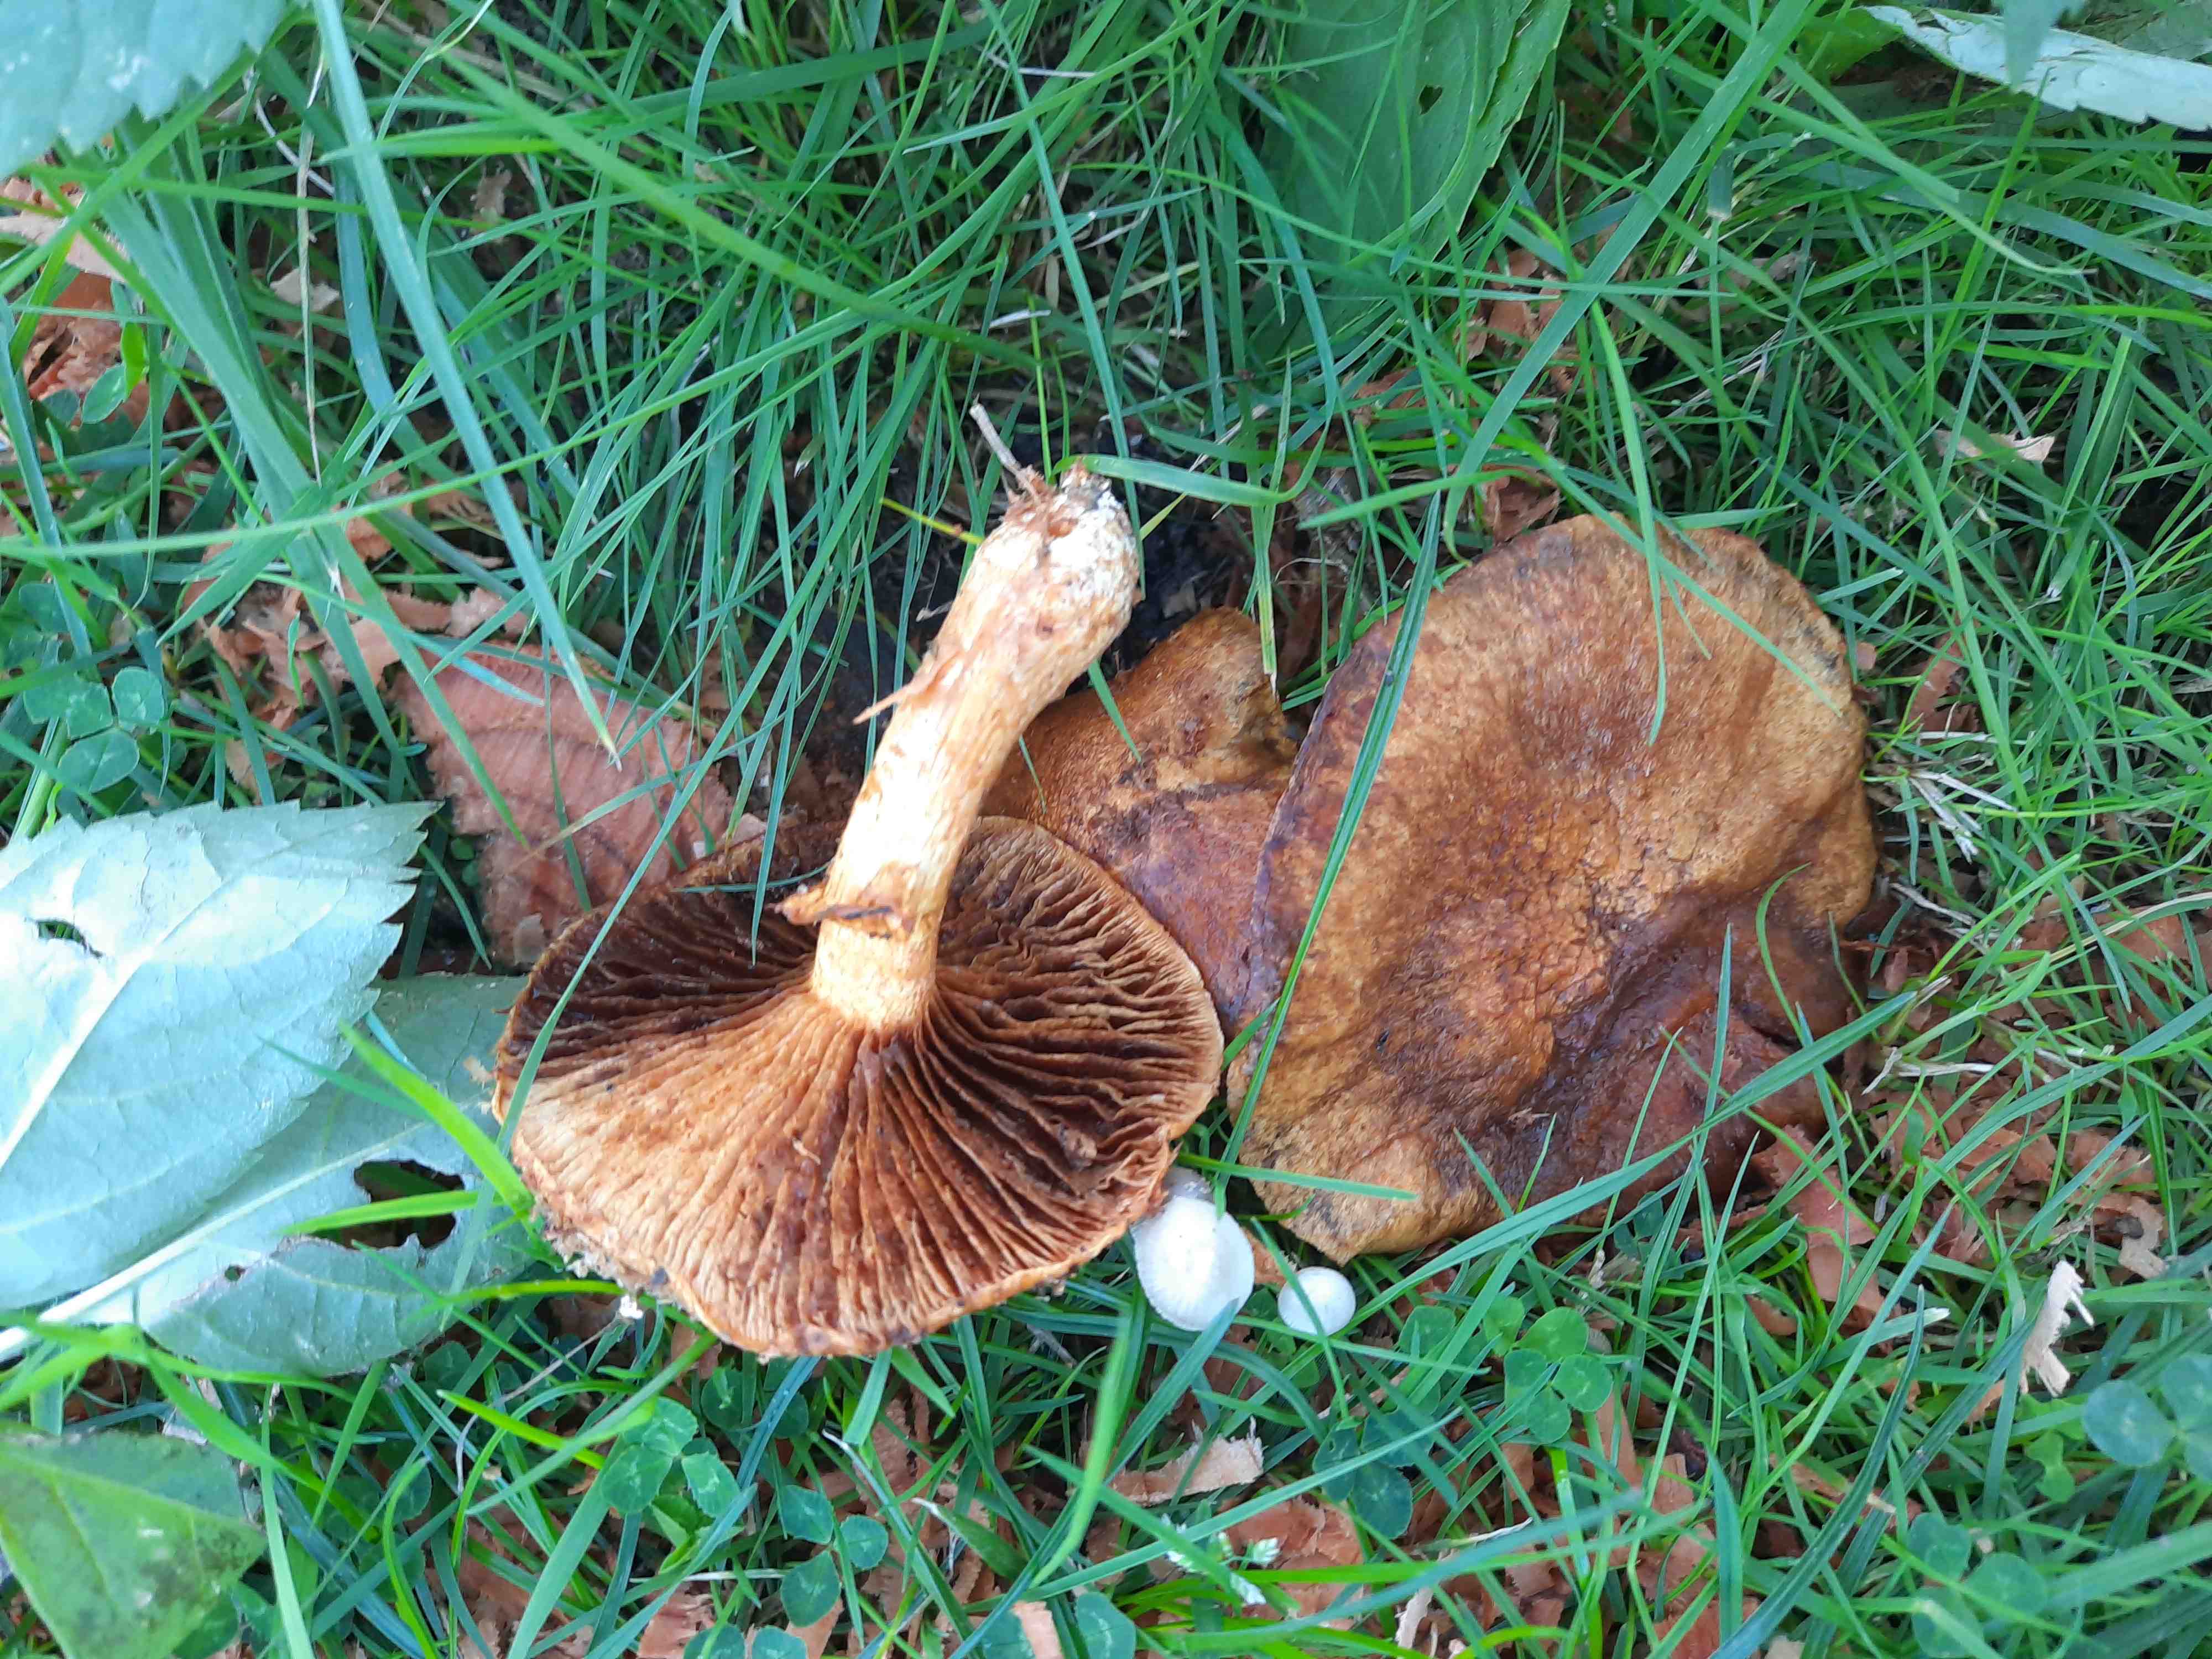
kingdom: Fungi
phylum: Basidiomycota
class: Agaricomycetes
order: Agaricales
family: Hymenogastraceae
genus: Gymnopilus
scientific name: Gymnopilus spectabilis
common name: fibret flammehat
